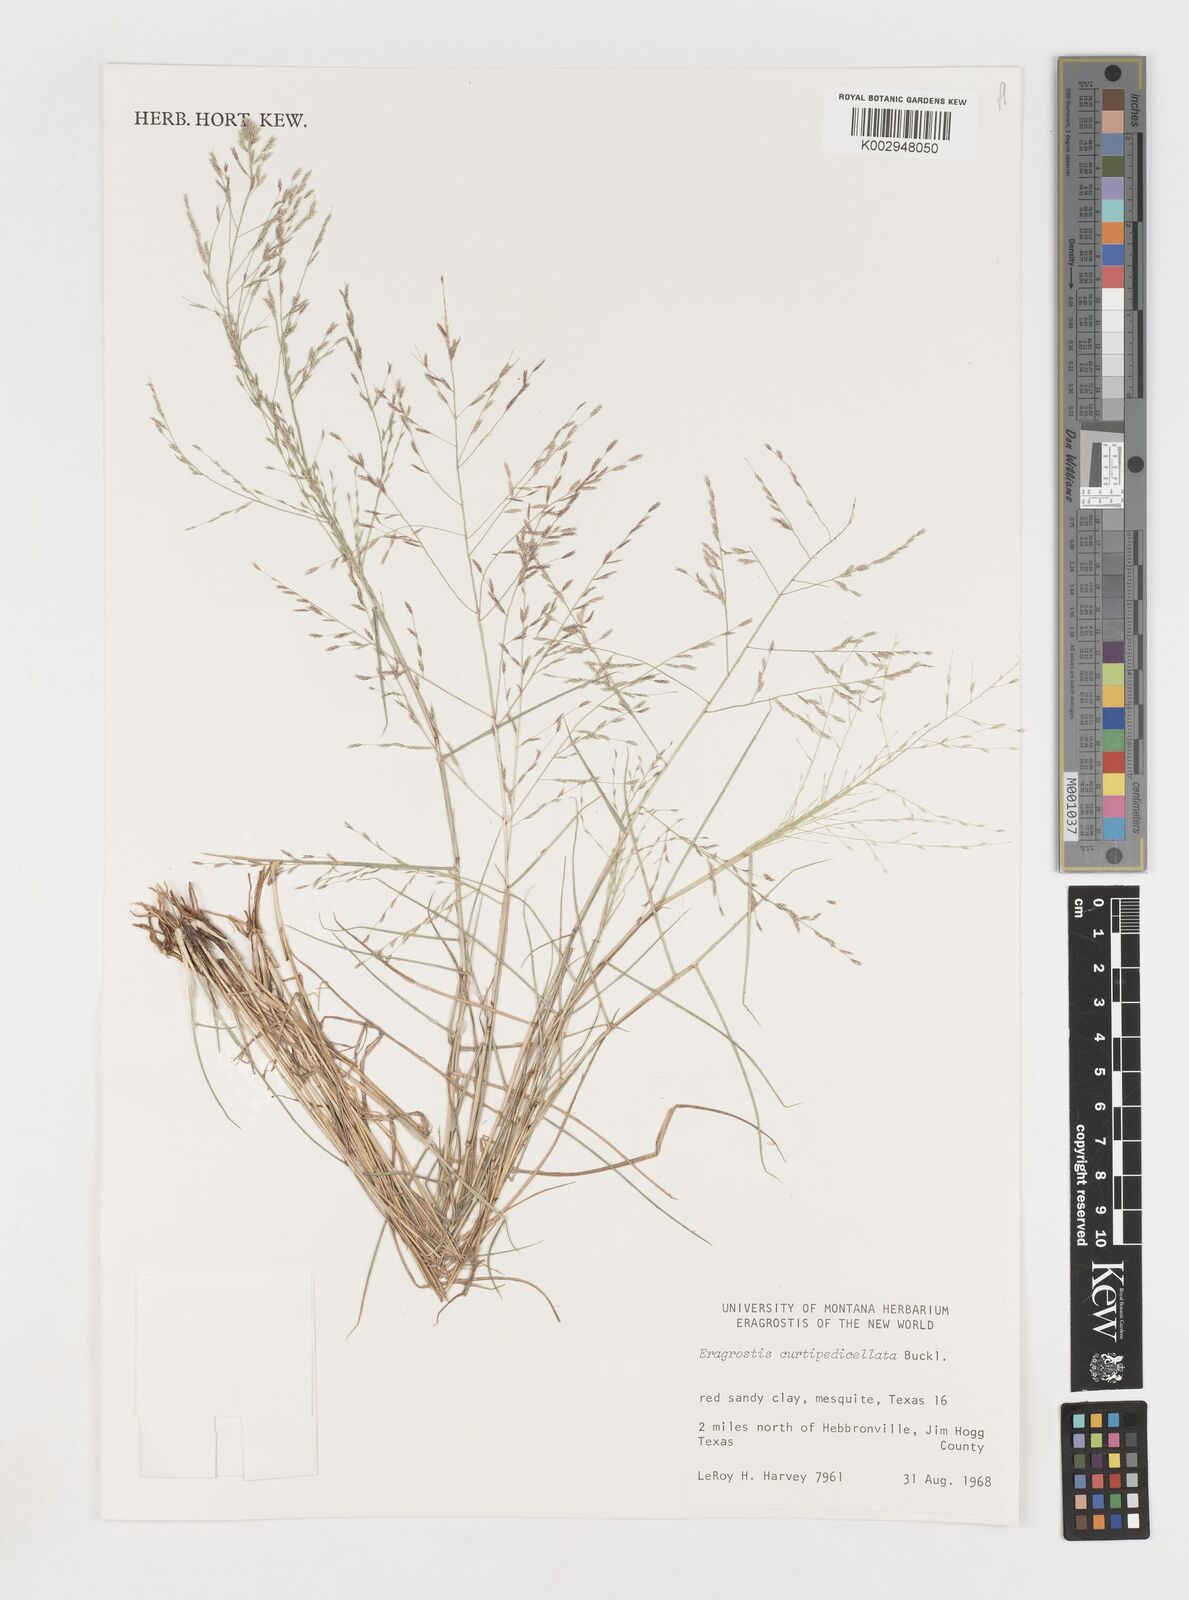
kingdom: Plantae
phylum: Tracheophyta
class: Liliopsida
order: Poales
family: Poaceae
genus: Eragrostis
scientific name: Eragrostis curtipedicellata
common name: Gummy love grass
